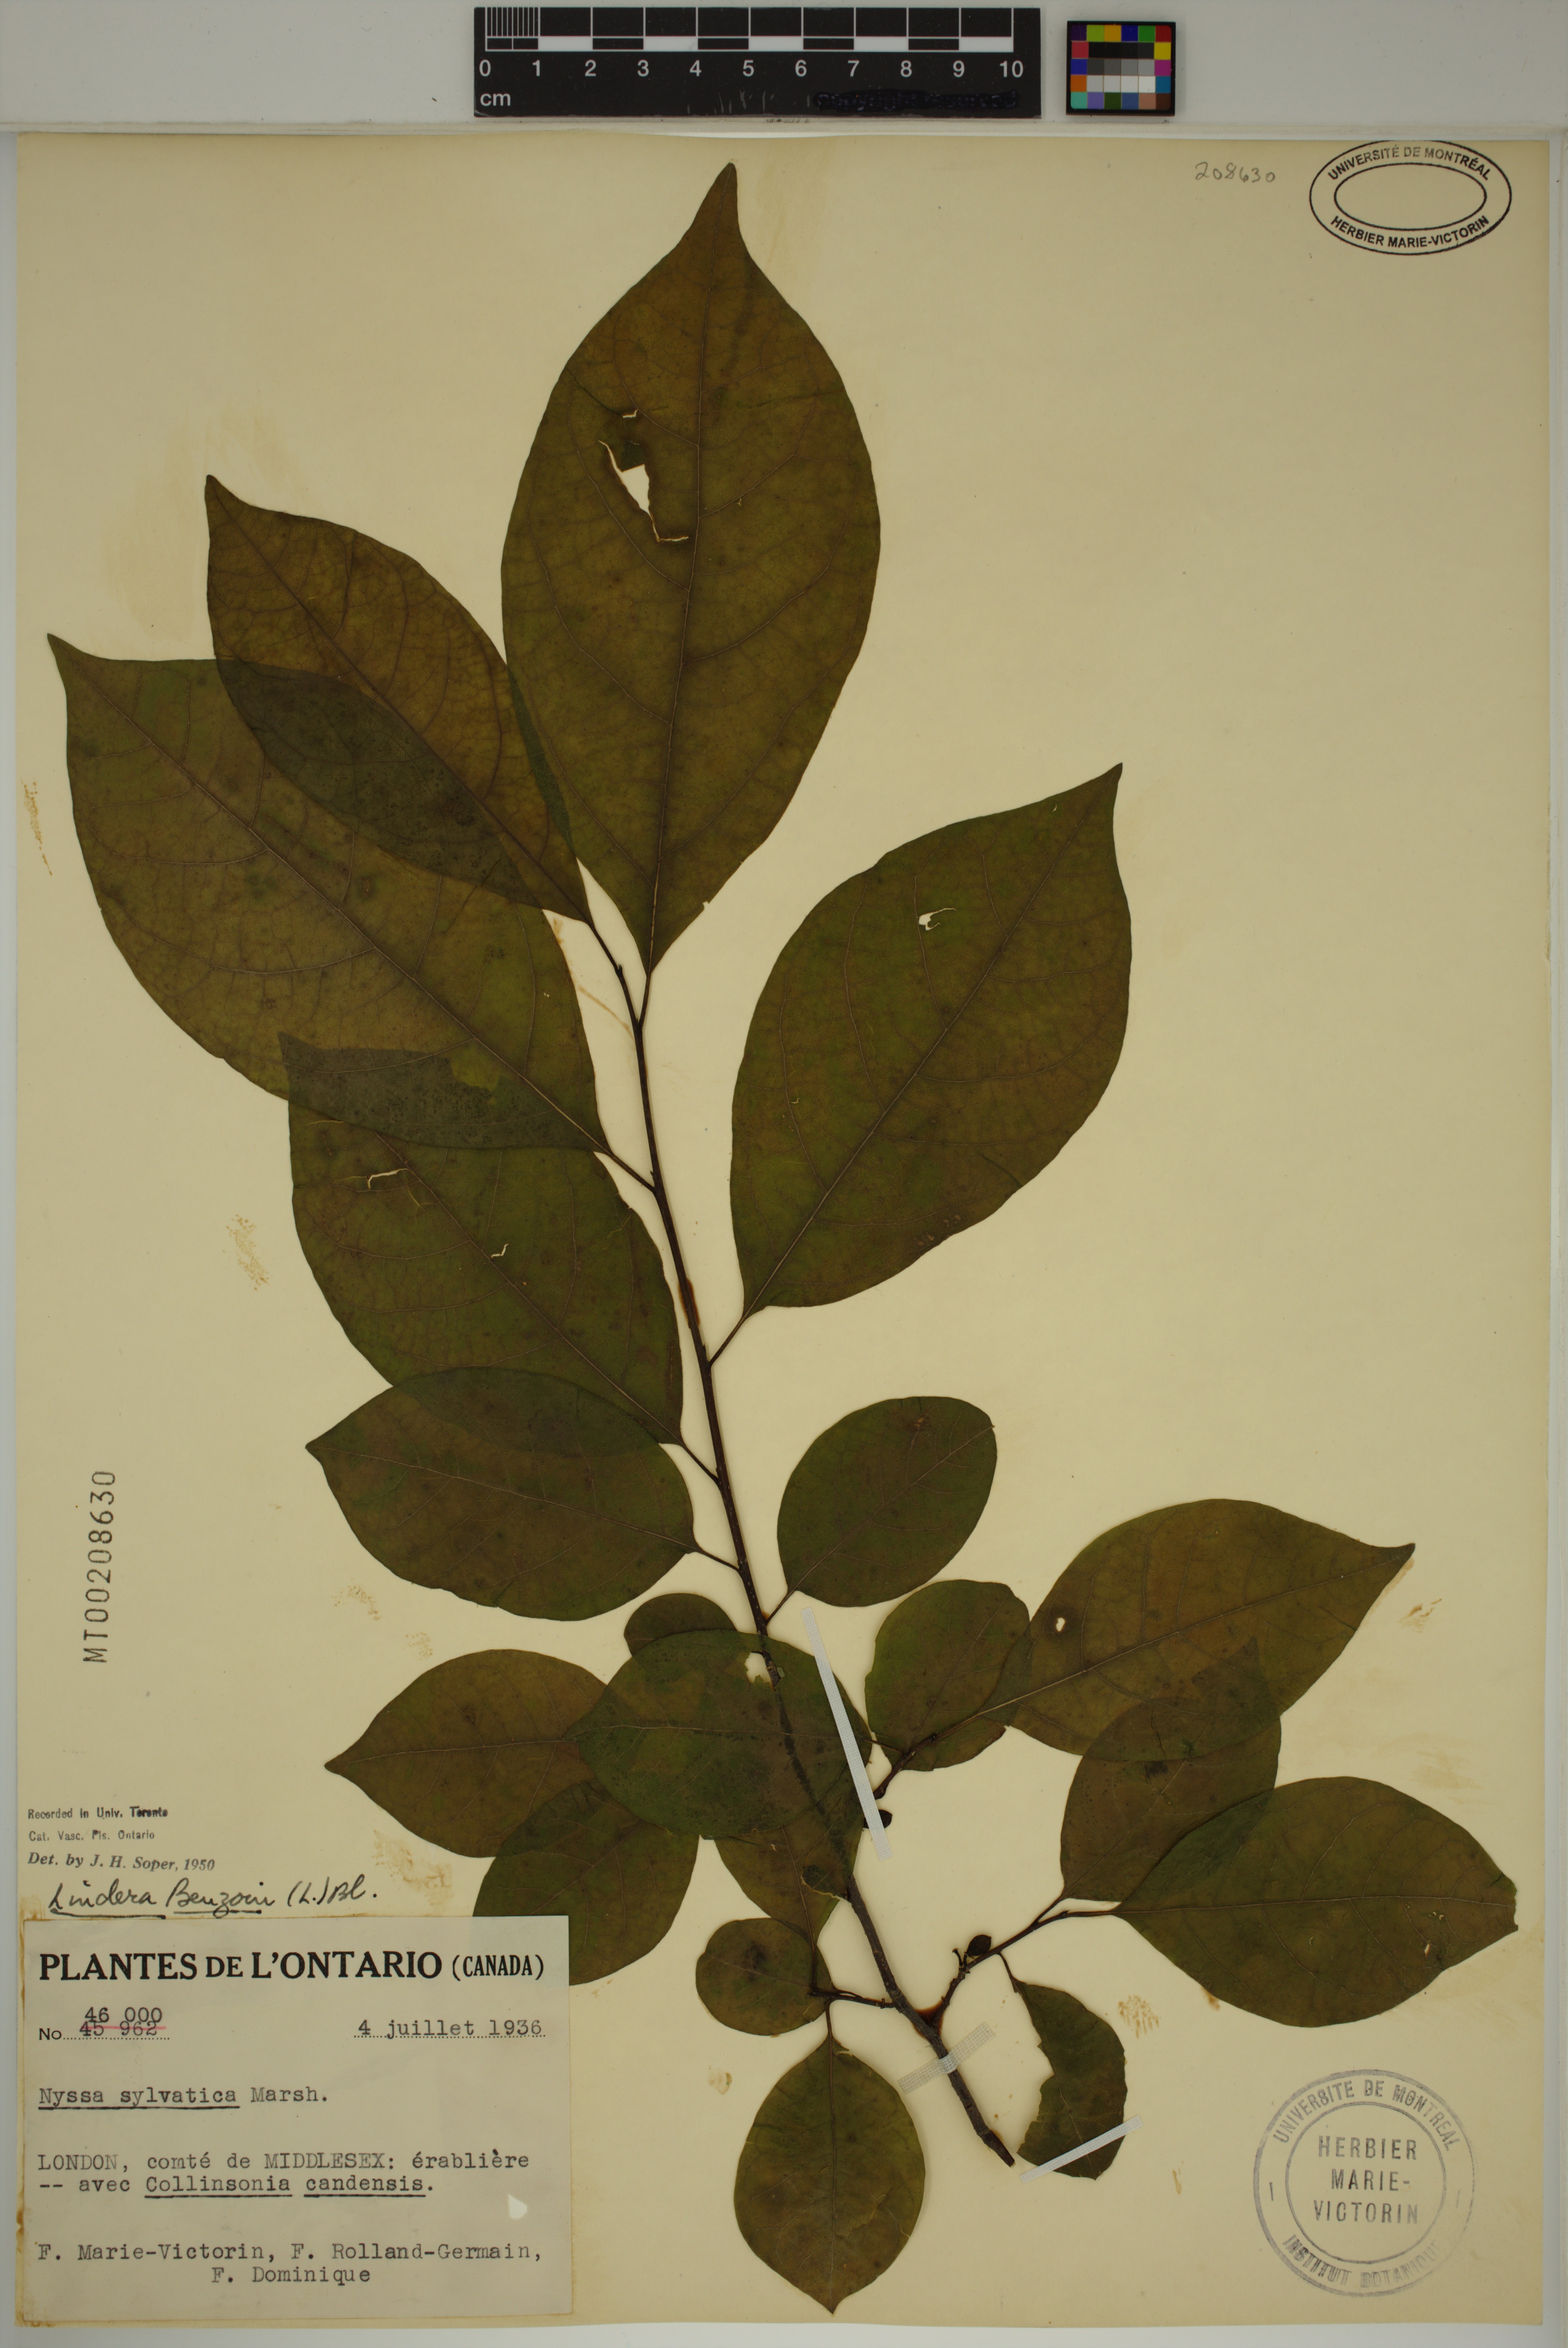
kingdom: Plantae
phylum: Tracheophyta
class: Magnoliopsida
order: Laurales
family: Lauraceae
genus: Lindera
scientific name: Lindera benzoin
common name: Spicebush
